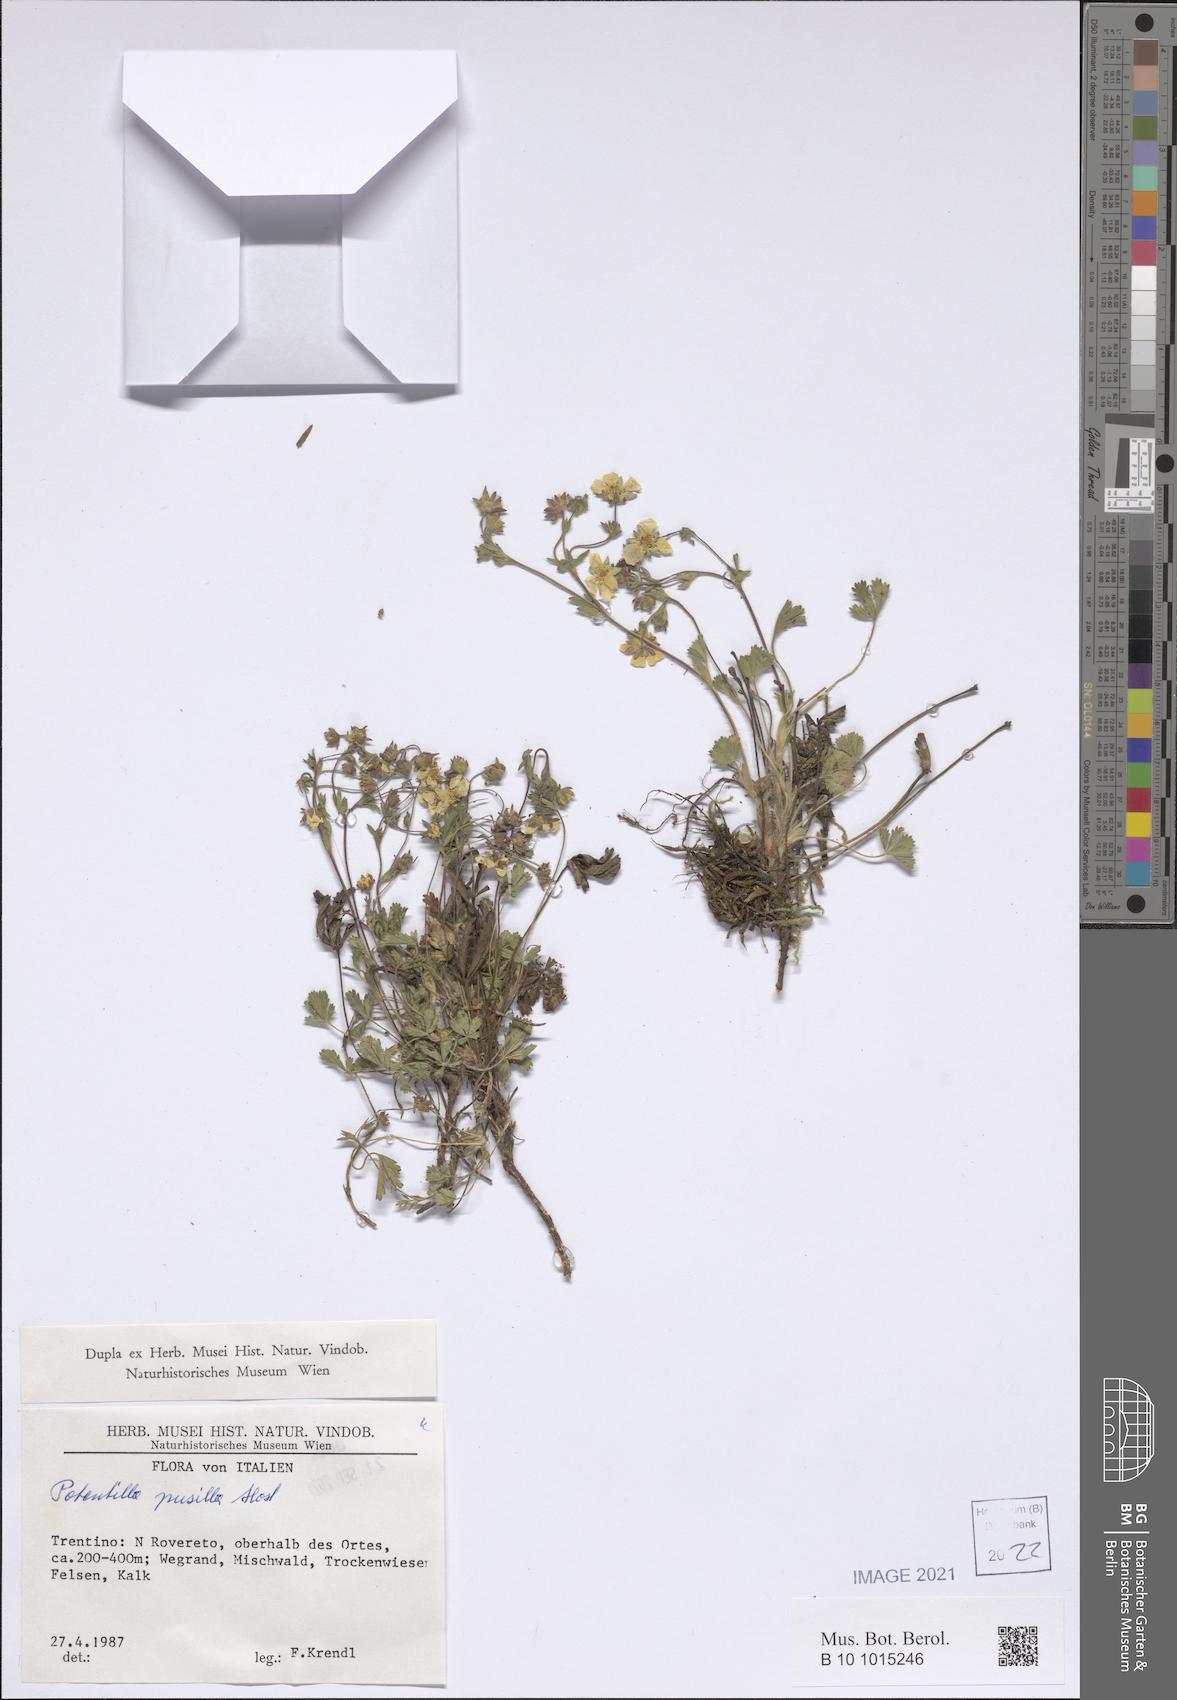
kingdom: Plantae
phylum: Tracheophyta
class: Magnoliopsida
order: Rosales
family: Rosaceae
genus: Potentilla
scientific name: Potentilla pusilla
